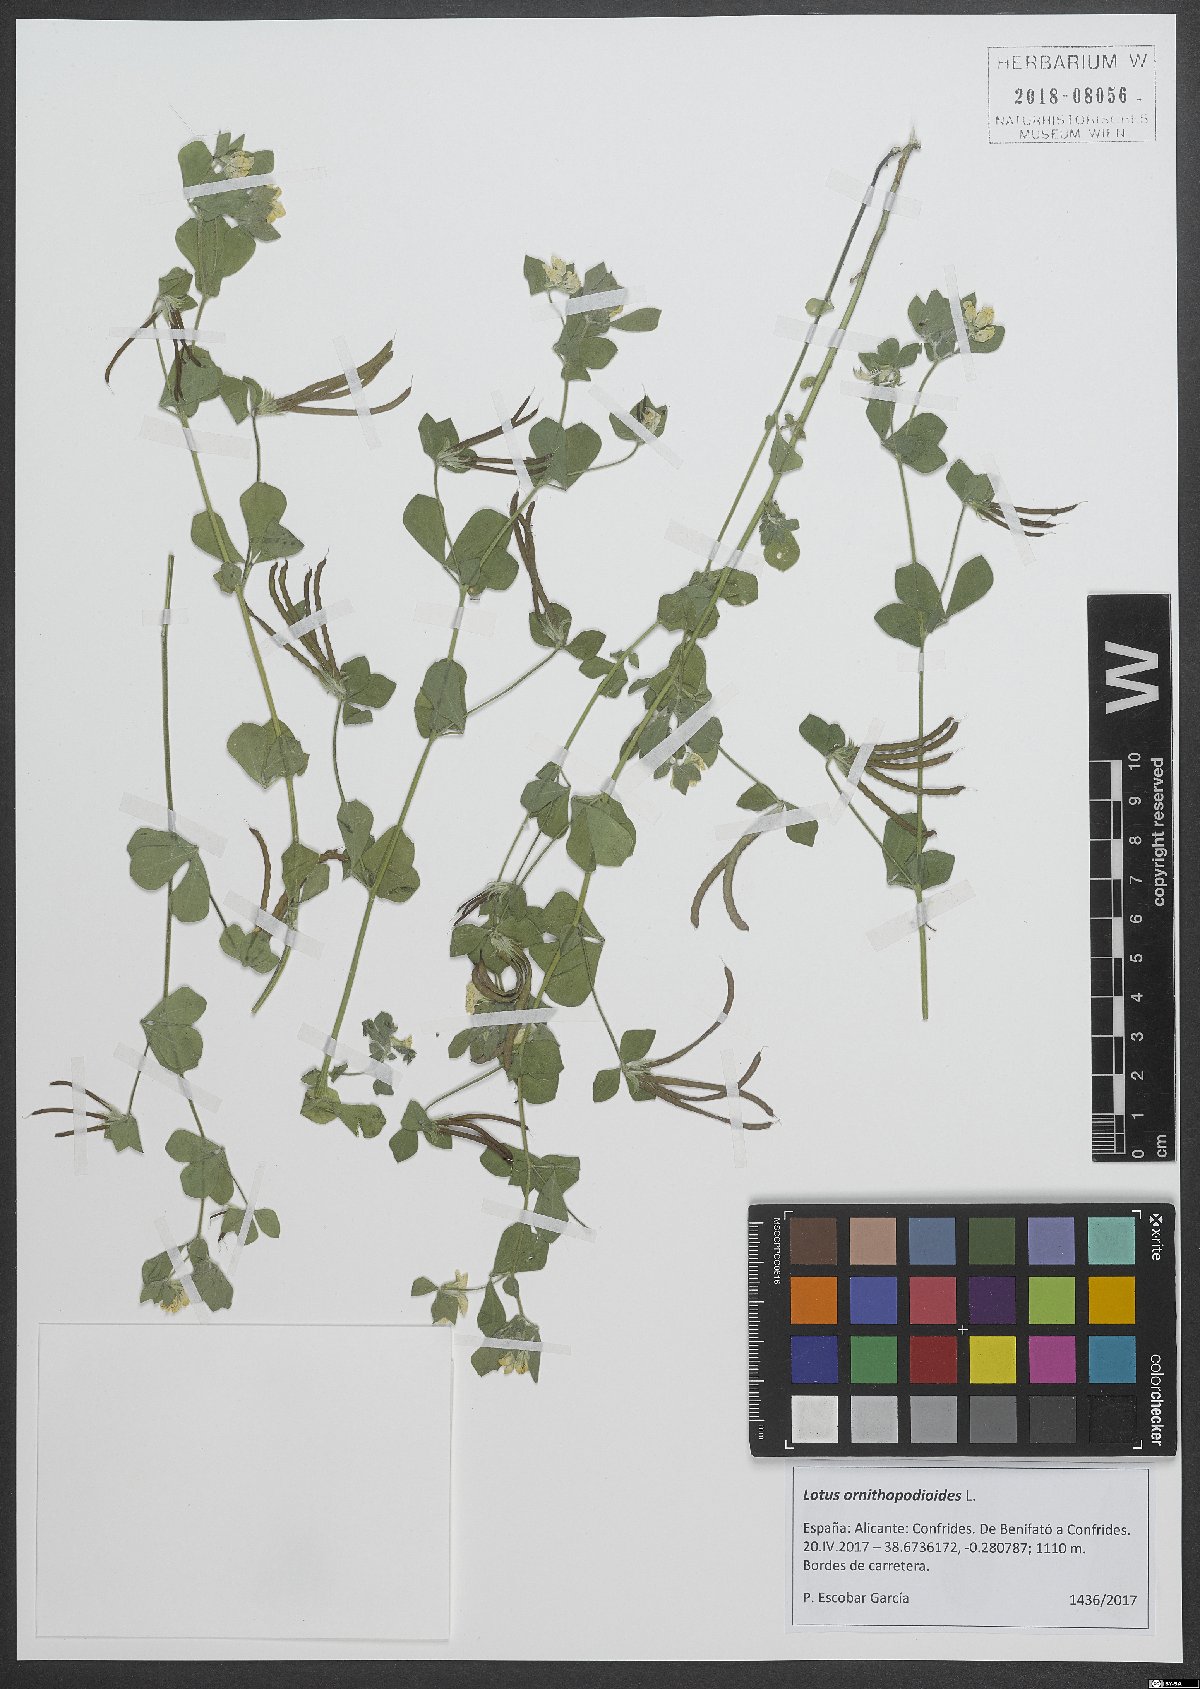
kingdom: Plantae
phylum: Tracheophyta
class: Magnoliopsida
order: Fabales
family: Fabaceae
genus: Lotus
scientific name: Lotus ornithopodioides
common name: Southern bird's-foot trefoil
